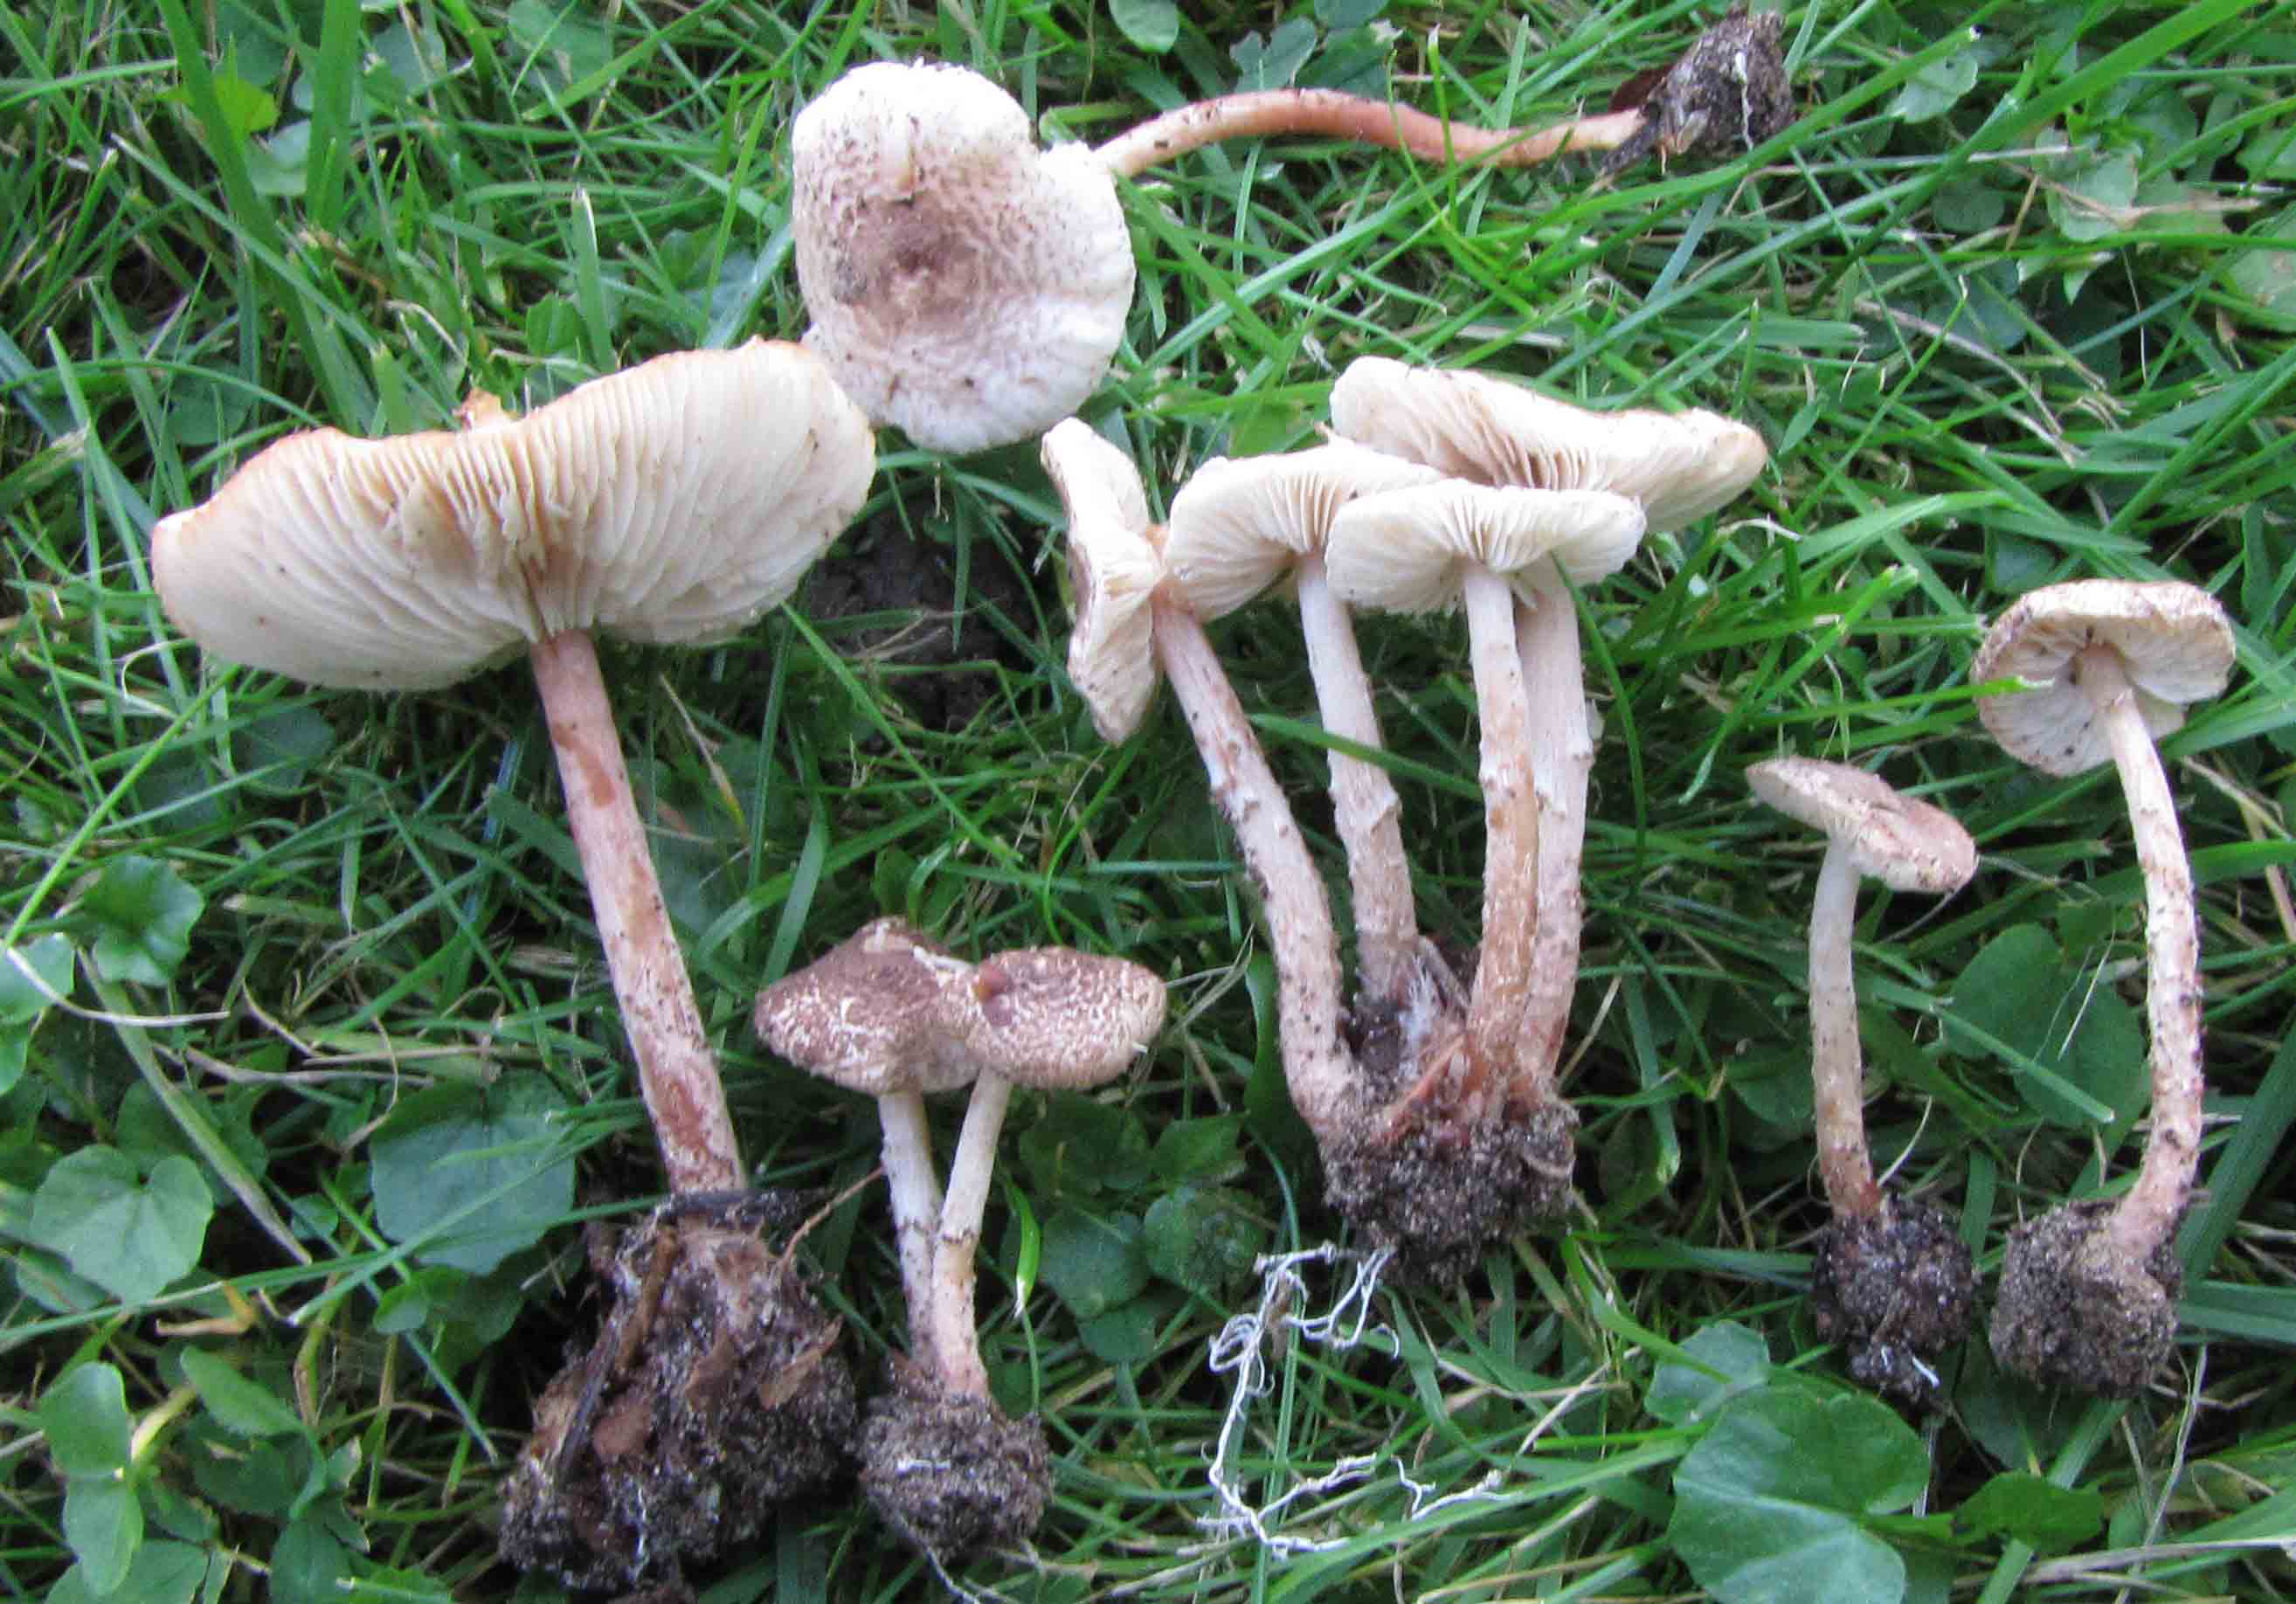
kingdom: Fungi
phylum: Basidiomycota
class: Agaricomycetes
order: Agaricales
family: Agaricaceae
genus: Lepiota
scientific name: Lepiota tomentella
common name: filtet parasolhat
